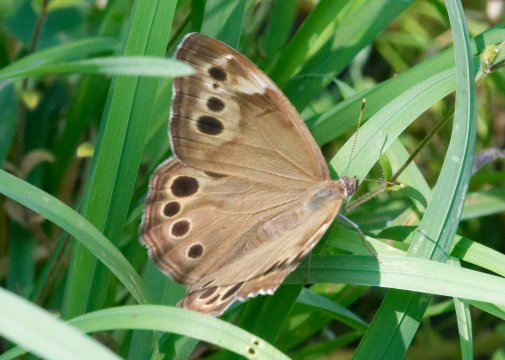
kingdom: Animalia
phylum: Arthropoda
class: Insecta
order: Lepidoptera
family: Nymphalidae
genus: Lethe
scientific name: Lethe anthedon
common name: Northern Pearly-Eye
